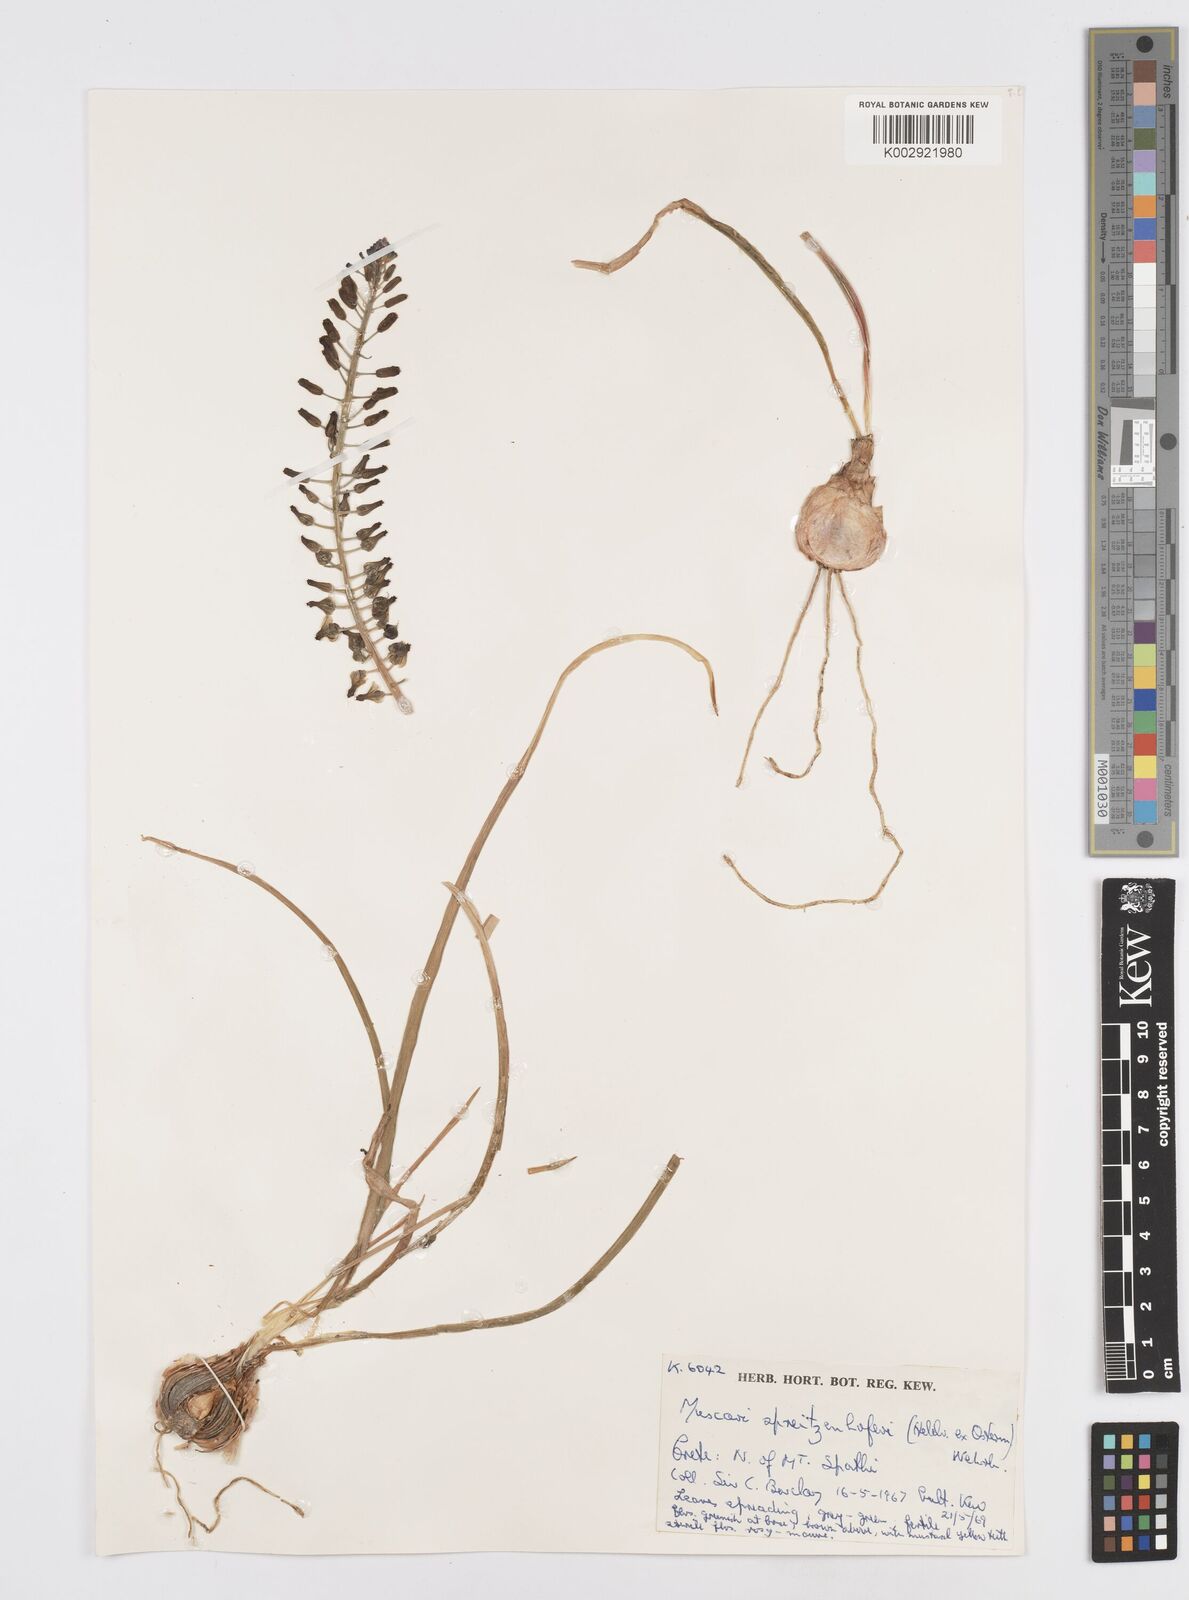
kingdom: Plantae
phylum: Tracheophyta
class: Liliopsida
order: Asparagales
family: Asparagaceae
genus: Muscari
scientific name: Muscari spreitzenhoferi
